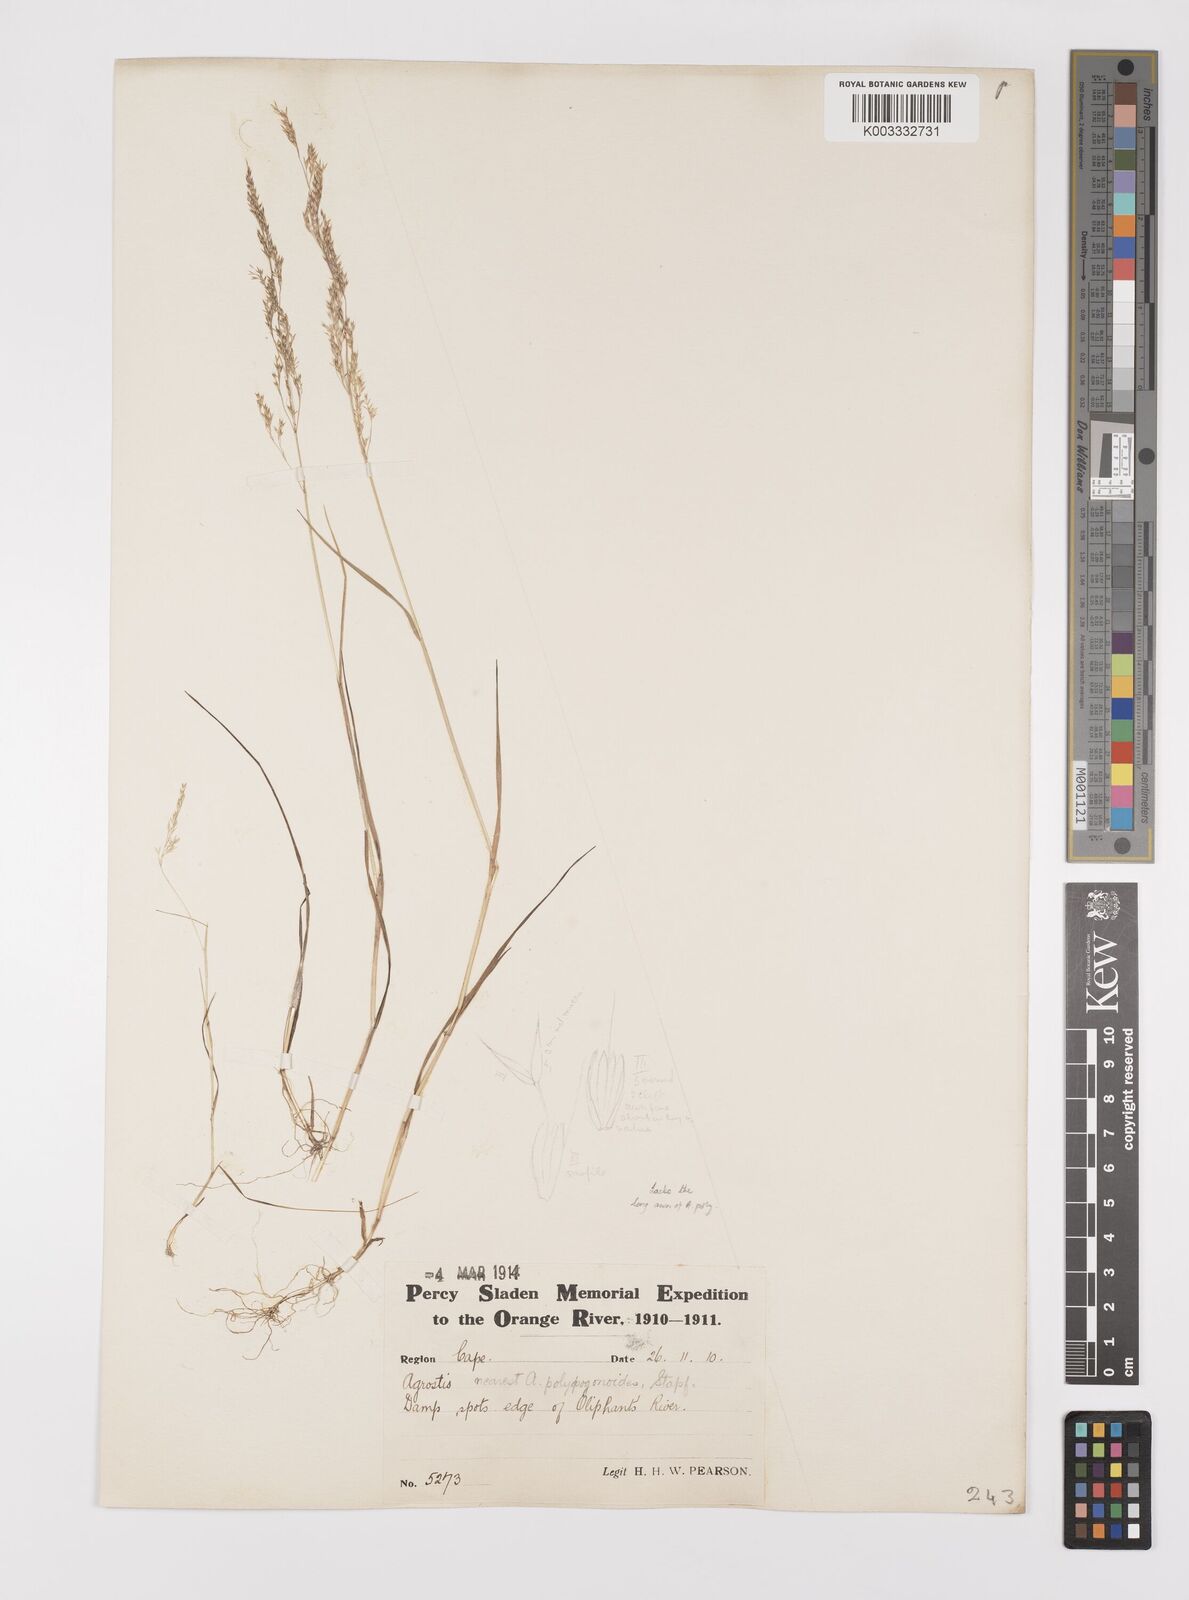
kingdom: Plantae
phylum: Tracheophyta
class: Liliopsida
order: Poales
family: Poaceae
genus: Polypogon
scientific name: Polypogon
